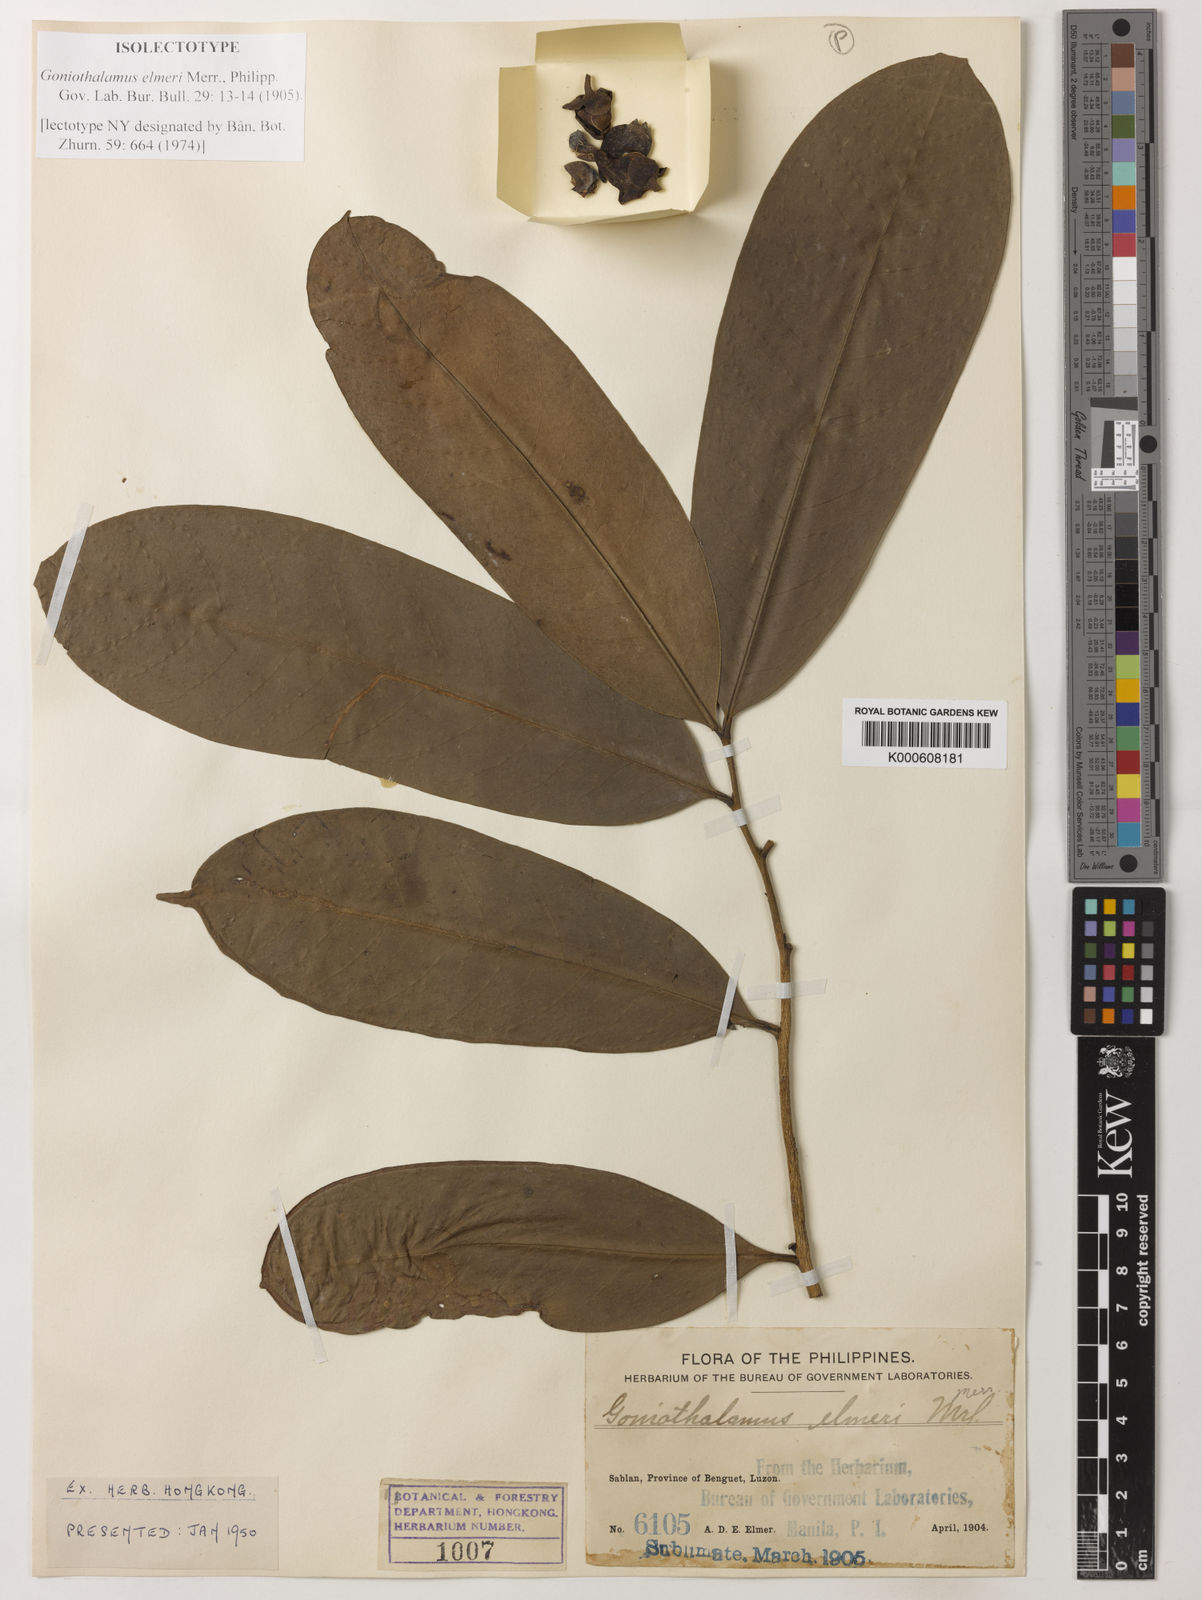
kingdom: Plantae
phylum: Tracheophyta
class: Magnoliopsida
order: Magnoliales
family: Annonaceae
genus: Goniothalamus
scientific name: Goniothalamus elmeri
